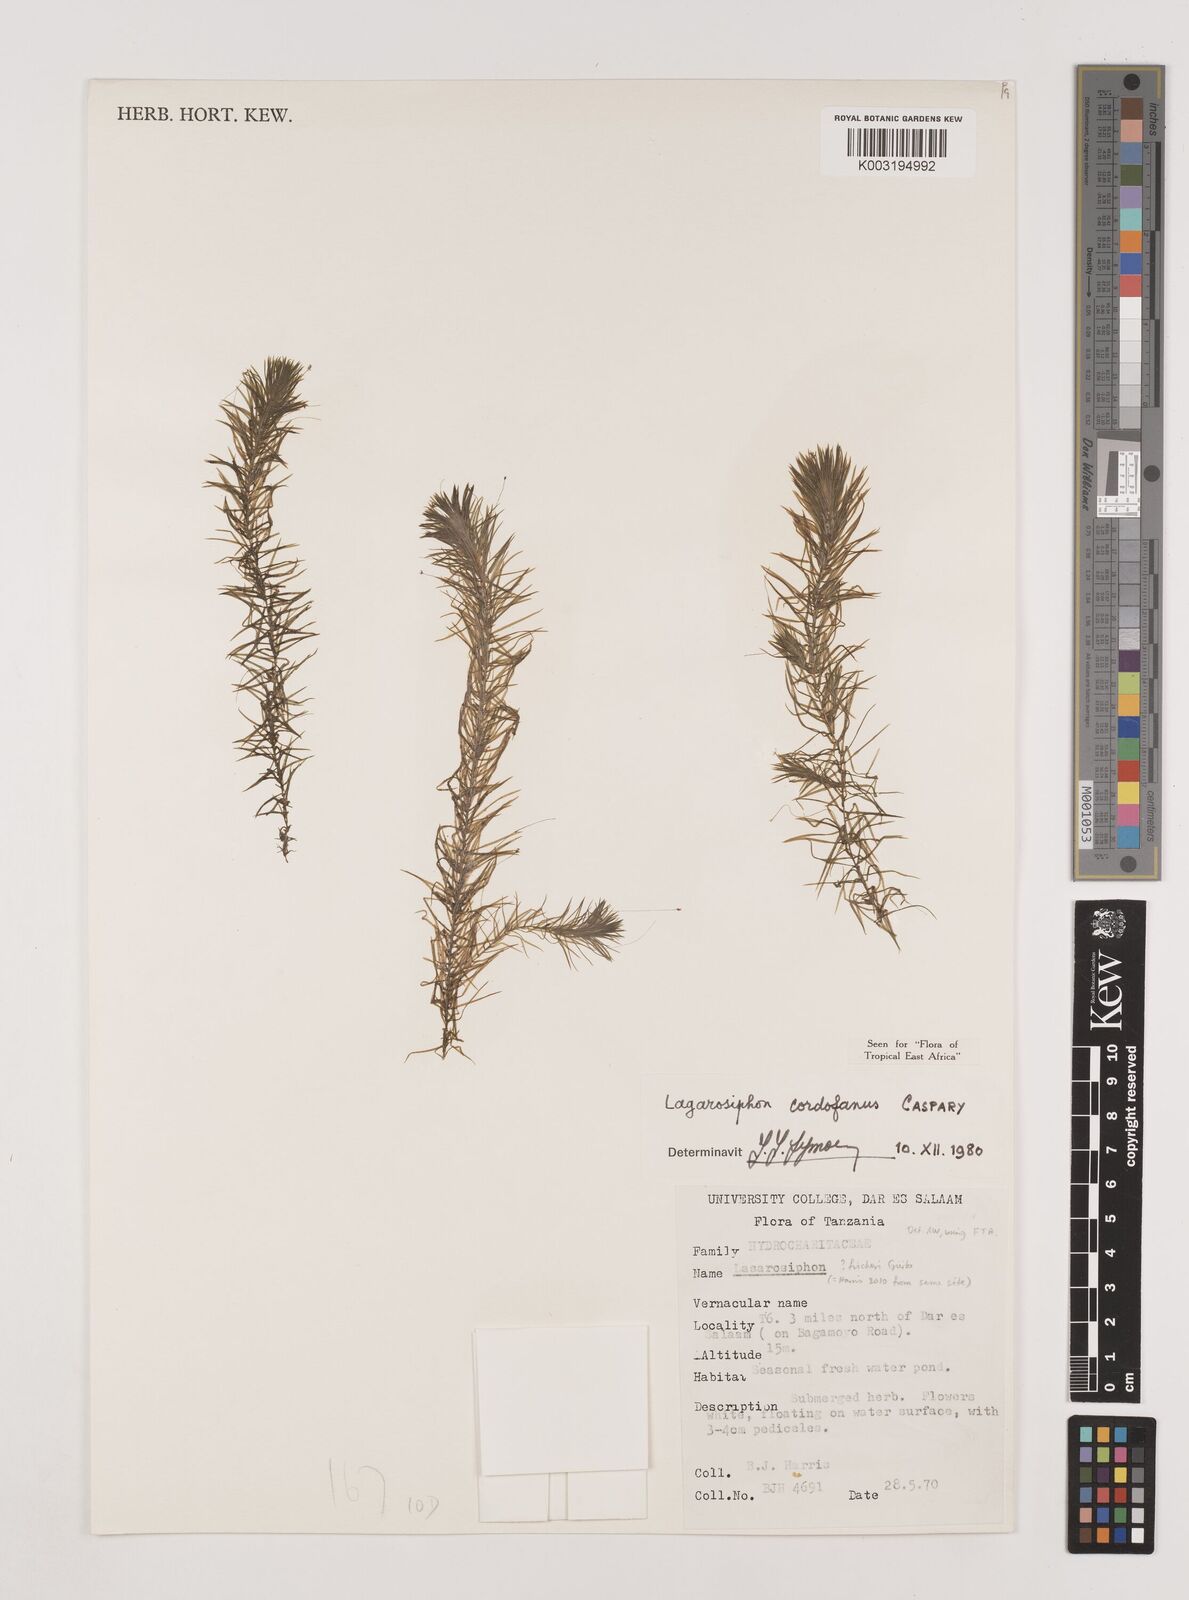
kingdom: Plantae
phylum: Tracheophyta
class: Liliopsida
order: Alismatales
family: Hydrocharitaceae
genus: Lagarosiphon
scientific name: Lagarosiphon cordofanus
